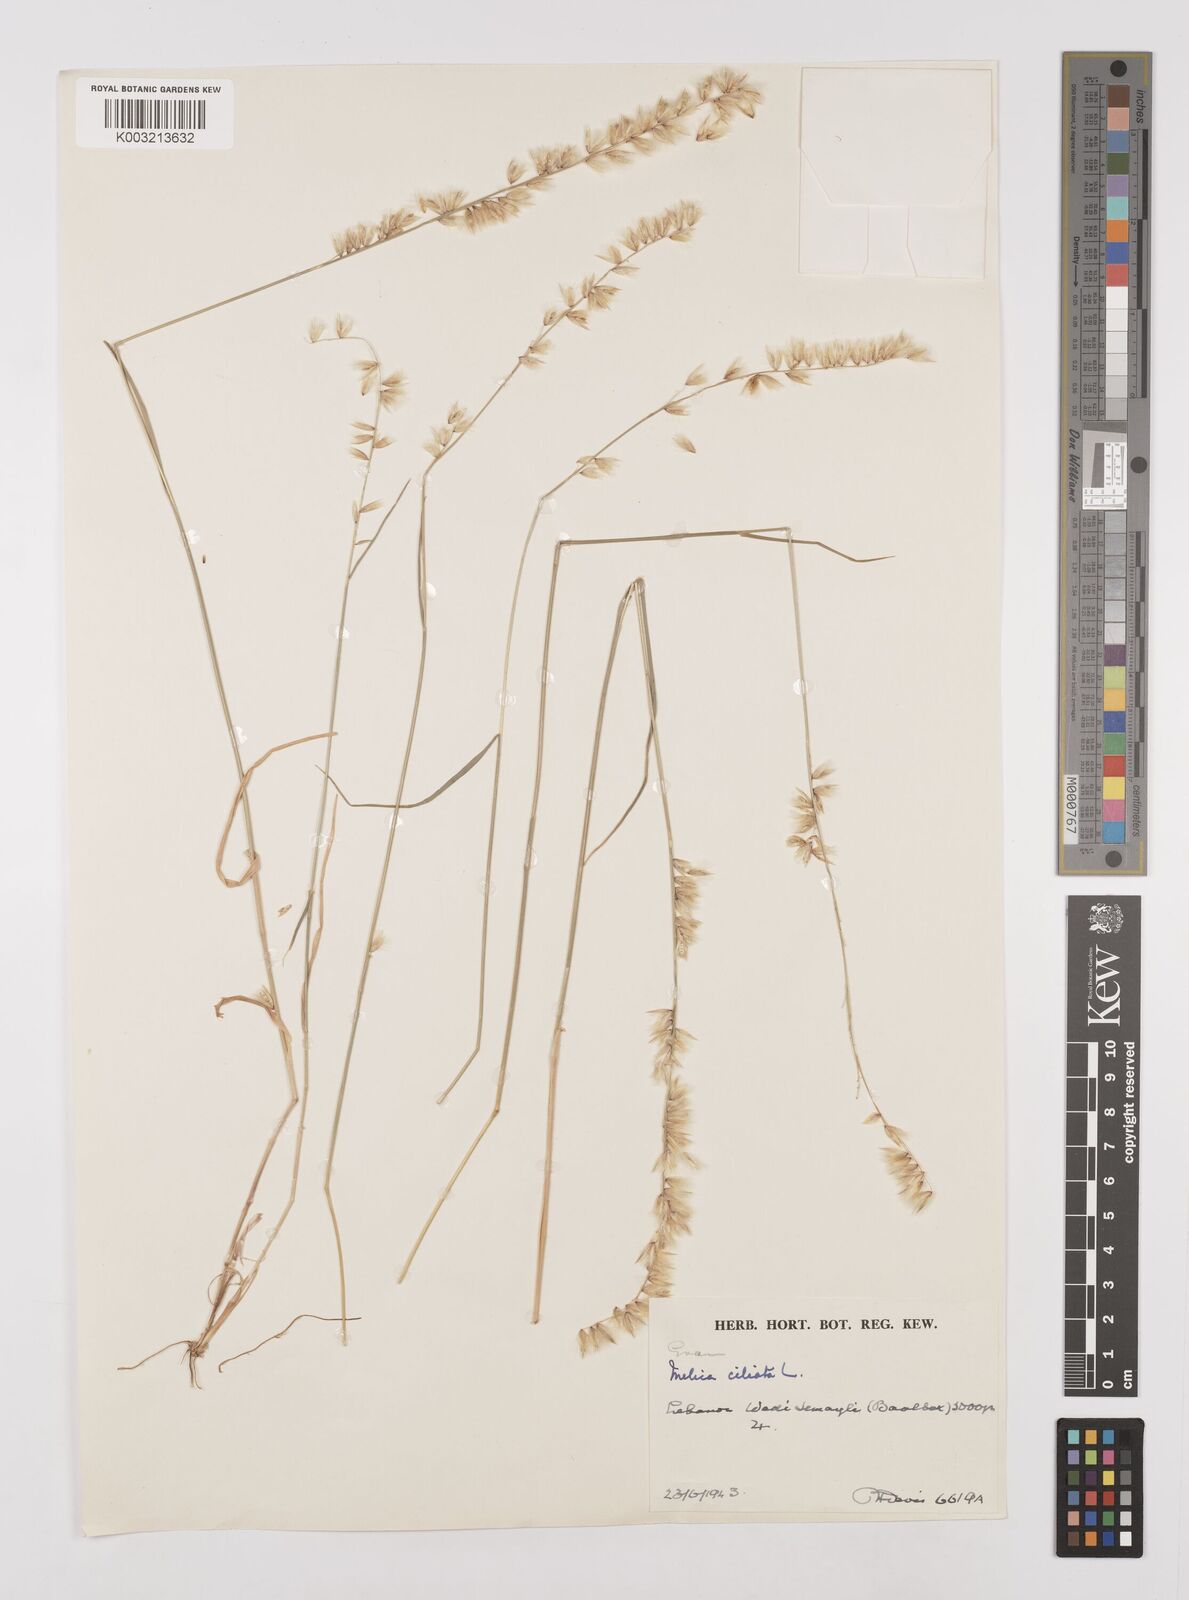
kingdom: Plantae
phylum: Tracheophyta
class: Liliopsida
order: Poales
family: Poaceae
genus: Melica
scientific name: Melica ciliata
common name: Hairy melicgrass
